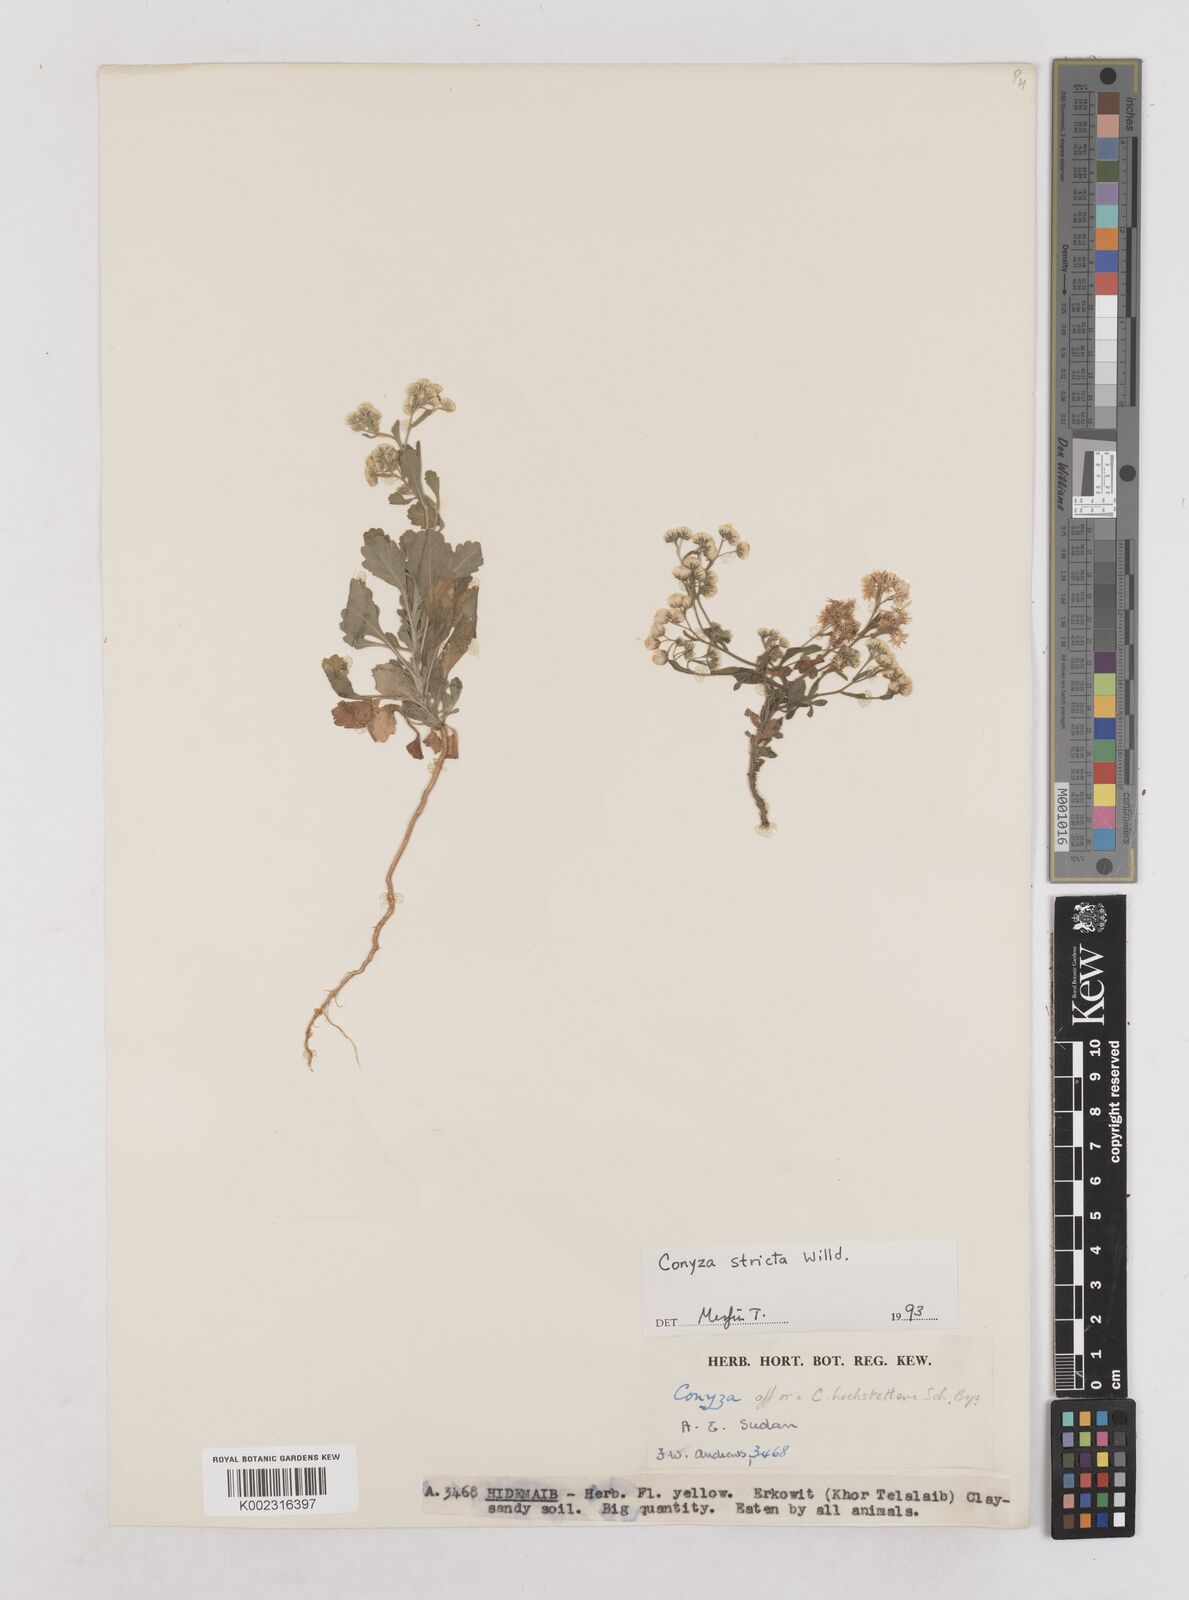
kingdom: Plantae
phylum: Tracheophyta
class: Magnoliopsida
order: Asterales
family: Asteraceae
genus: Nidorella
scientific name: Nidorella triloba
